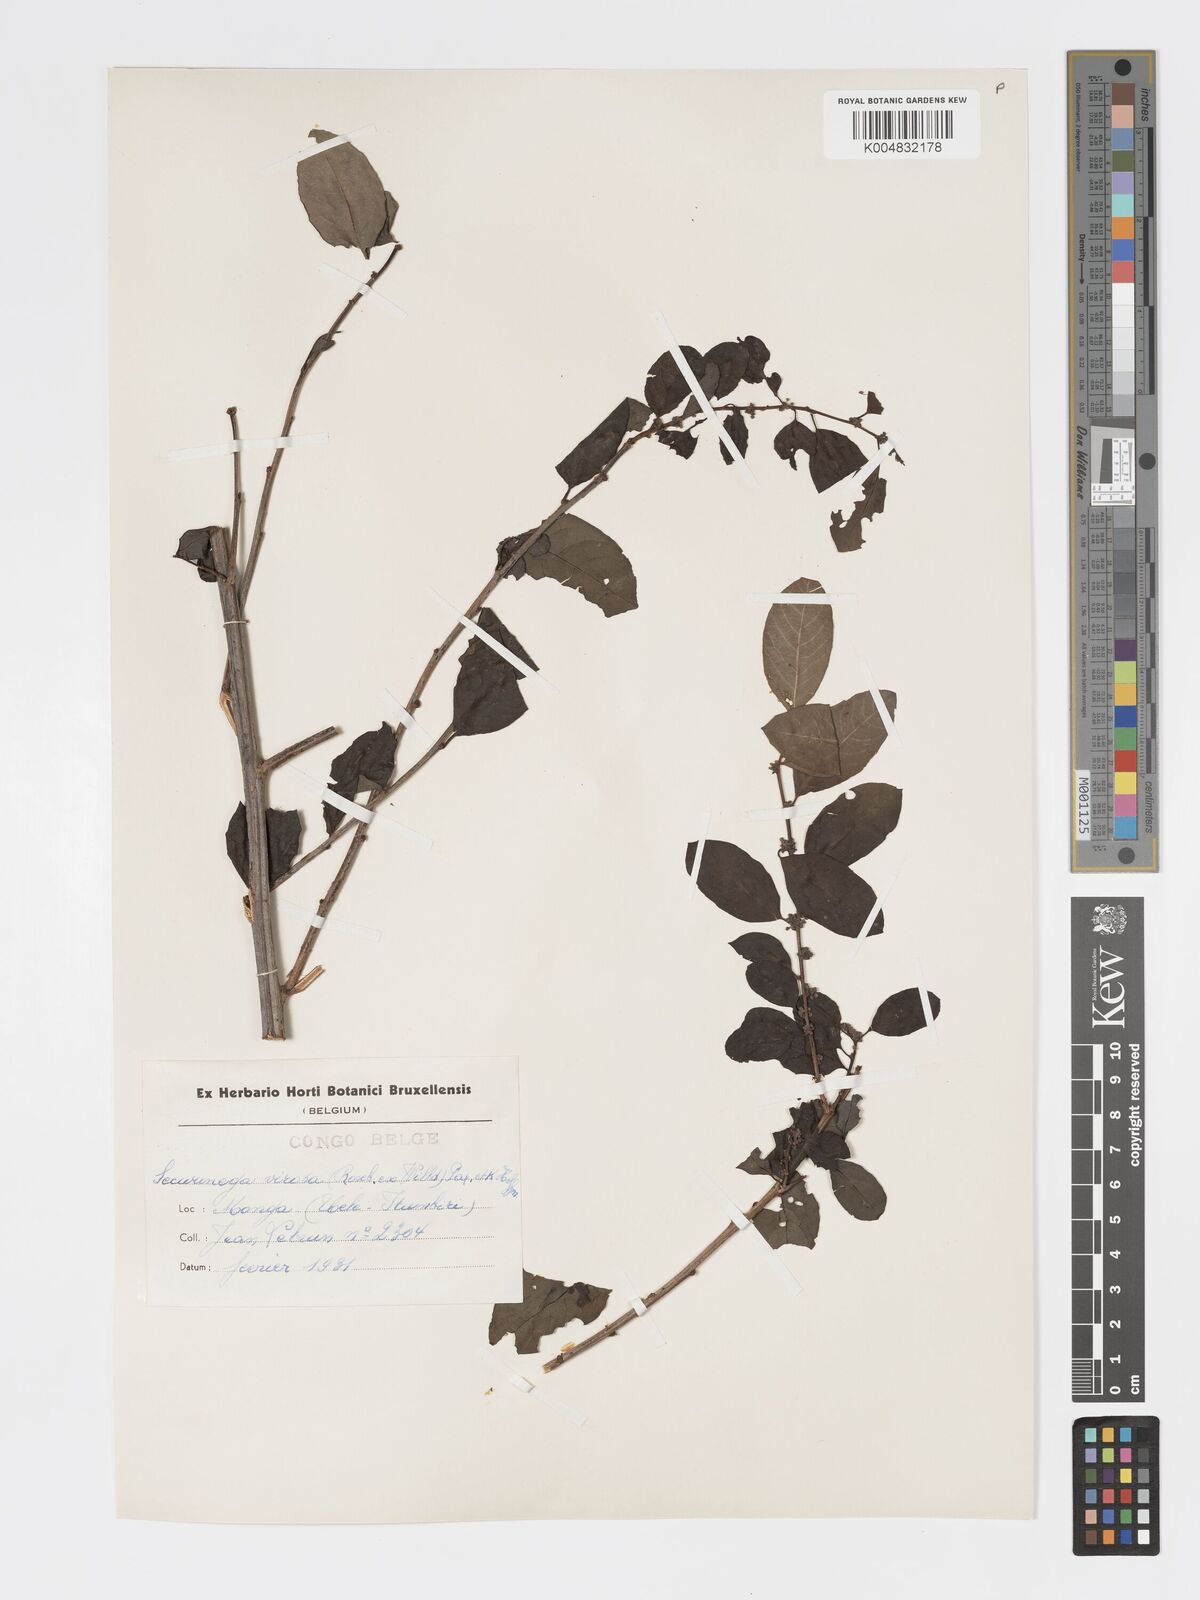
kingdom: Plantae
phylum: Tracheophyta
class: Magnoliopsida
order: Malpighiales
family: Phyllanthaceae
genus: Flueggea
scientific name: Flueggea virosa
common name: Common bushweed
